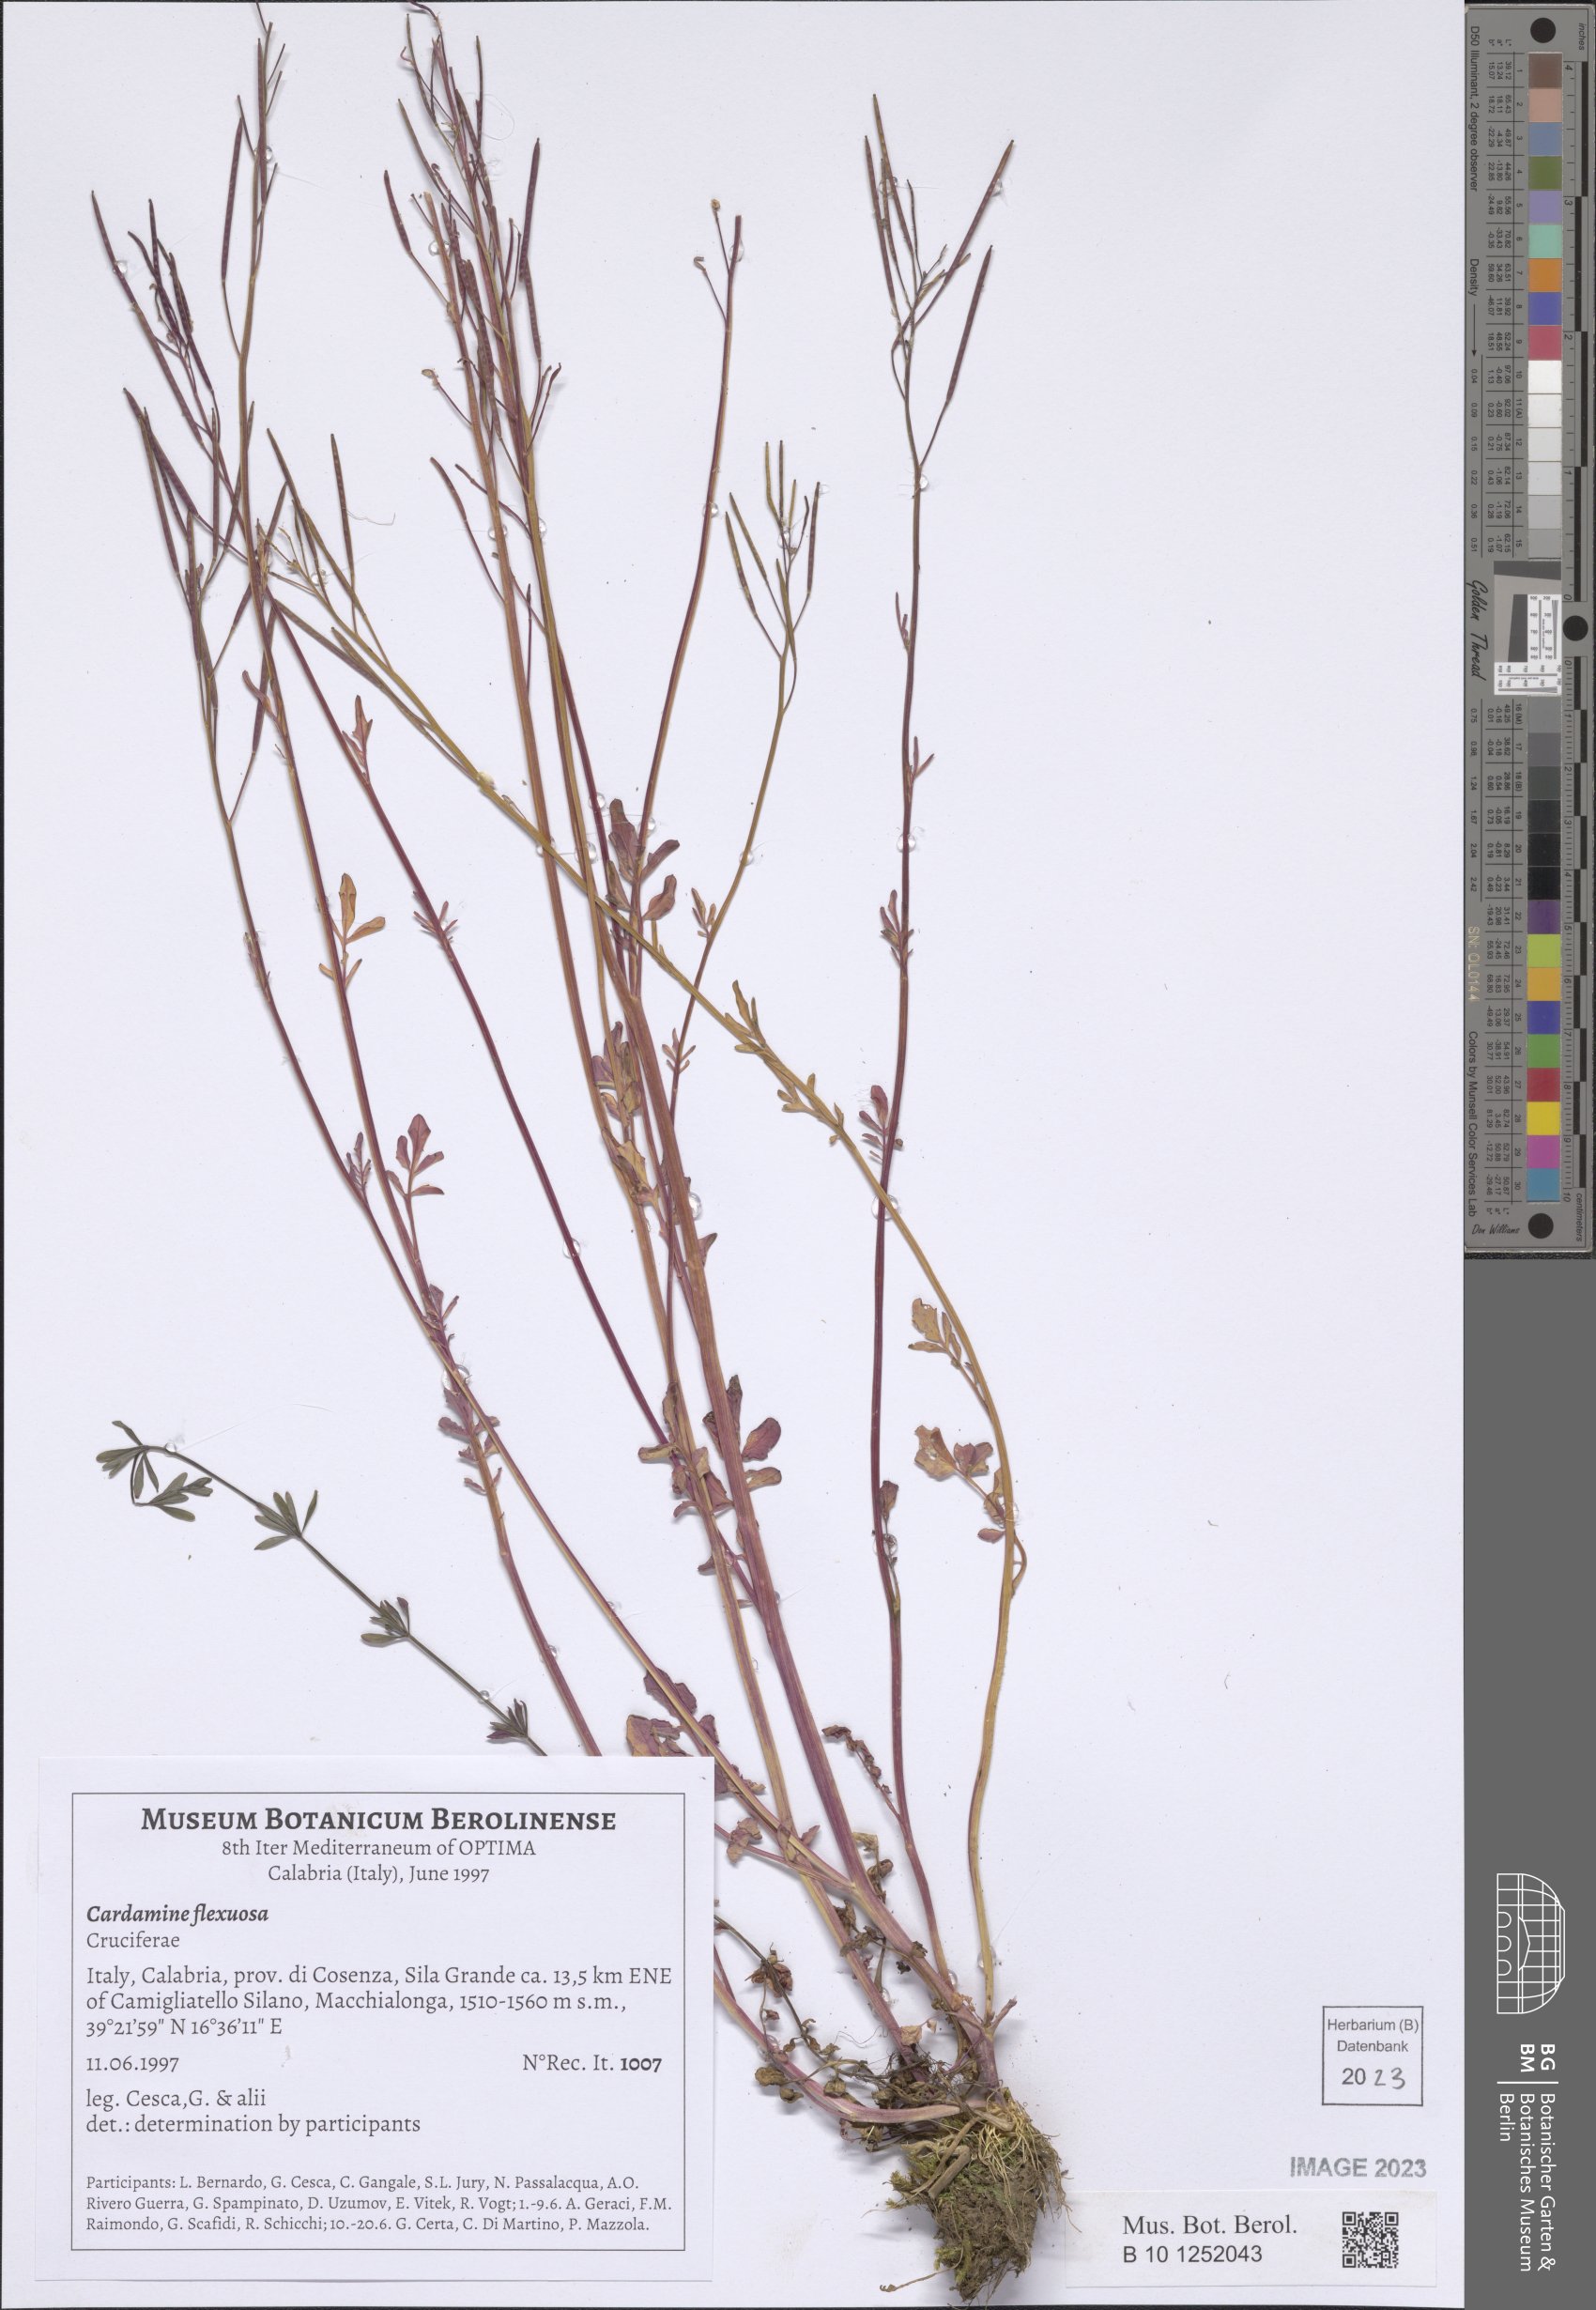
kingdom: Plantae
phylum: Tracheophyta
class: Magnoliopsida
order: Brassicales
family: Brassicaceae
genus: Cardamine
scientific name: Cardamine flexuosa
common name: Woodland bittercress
